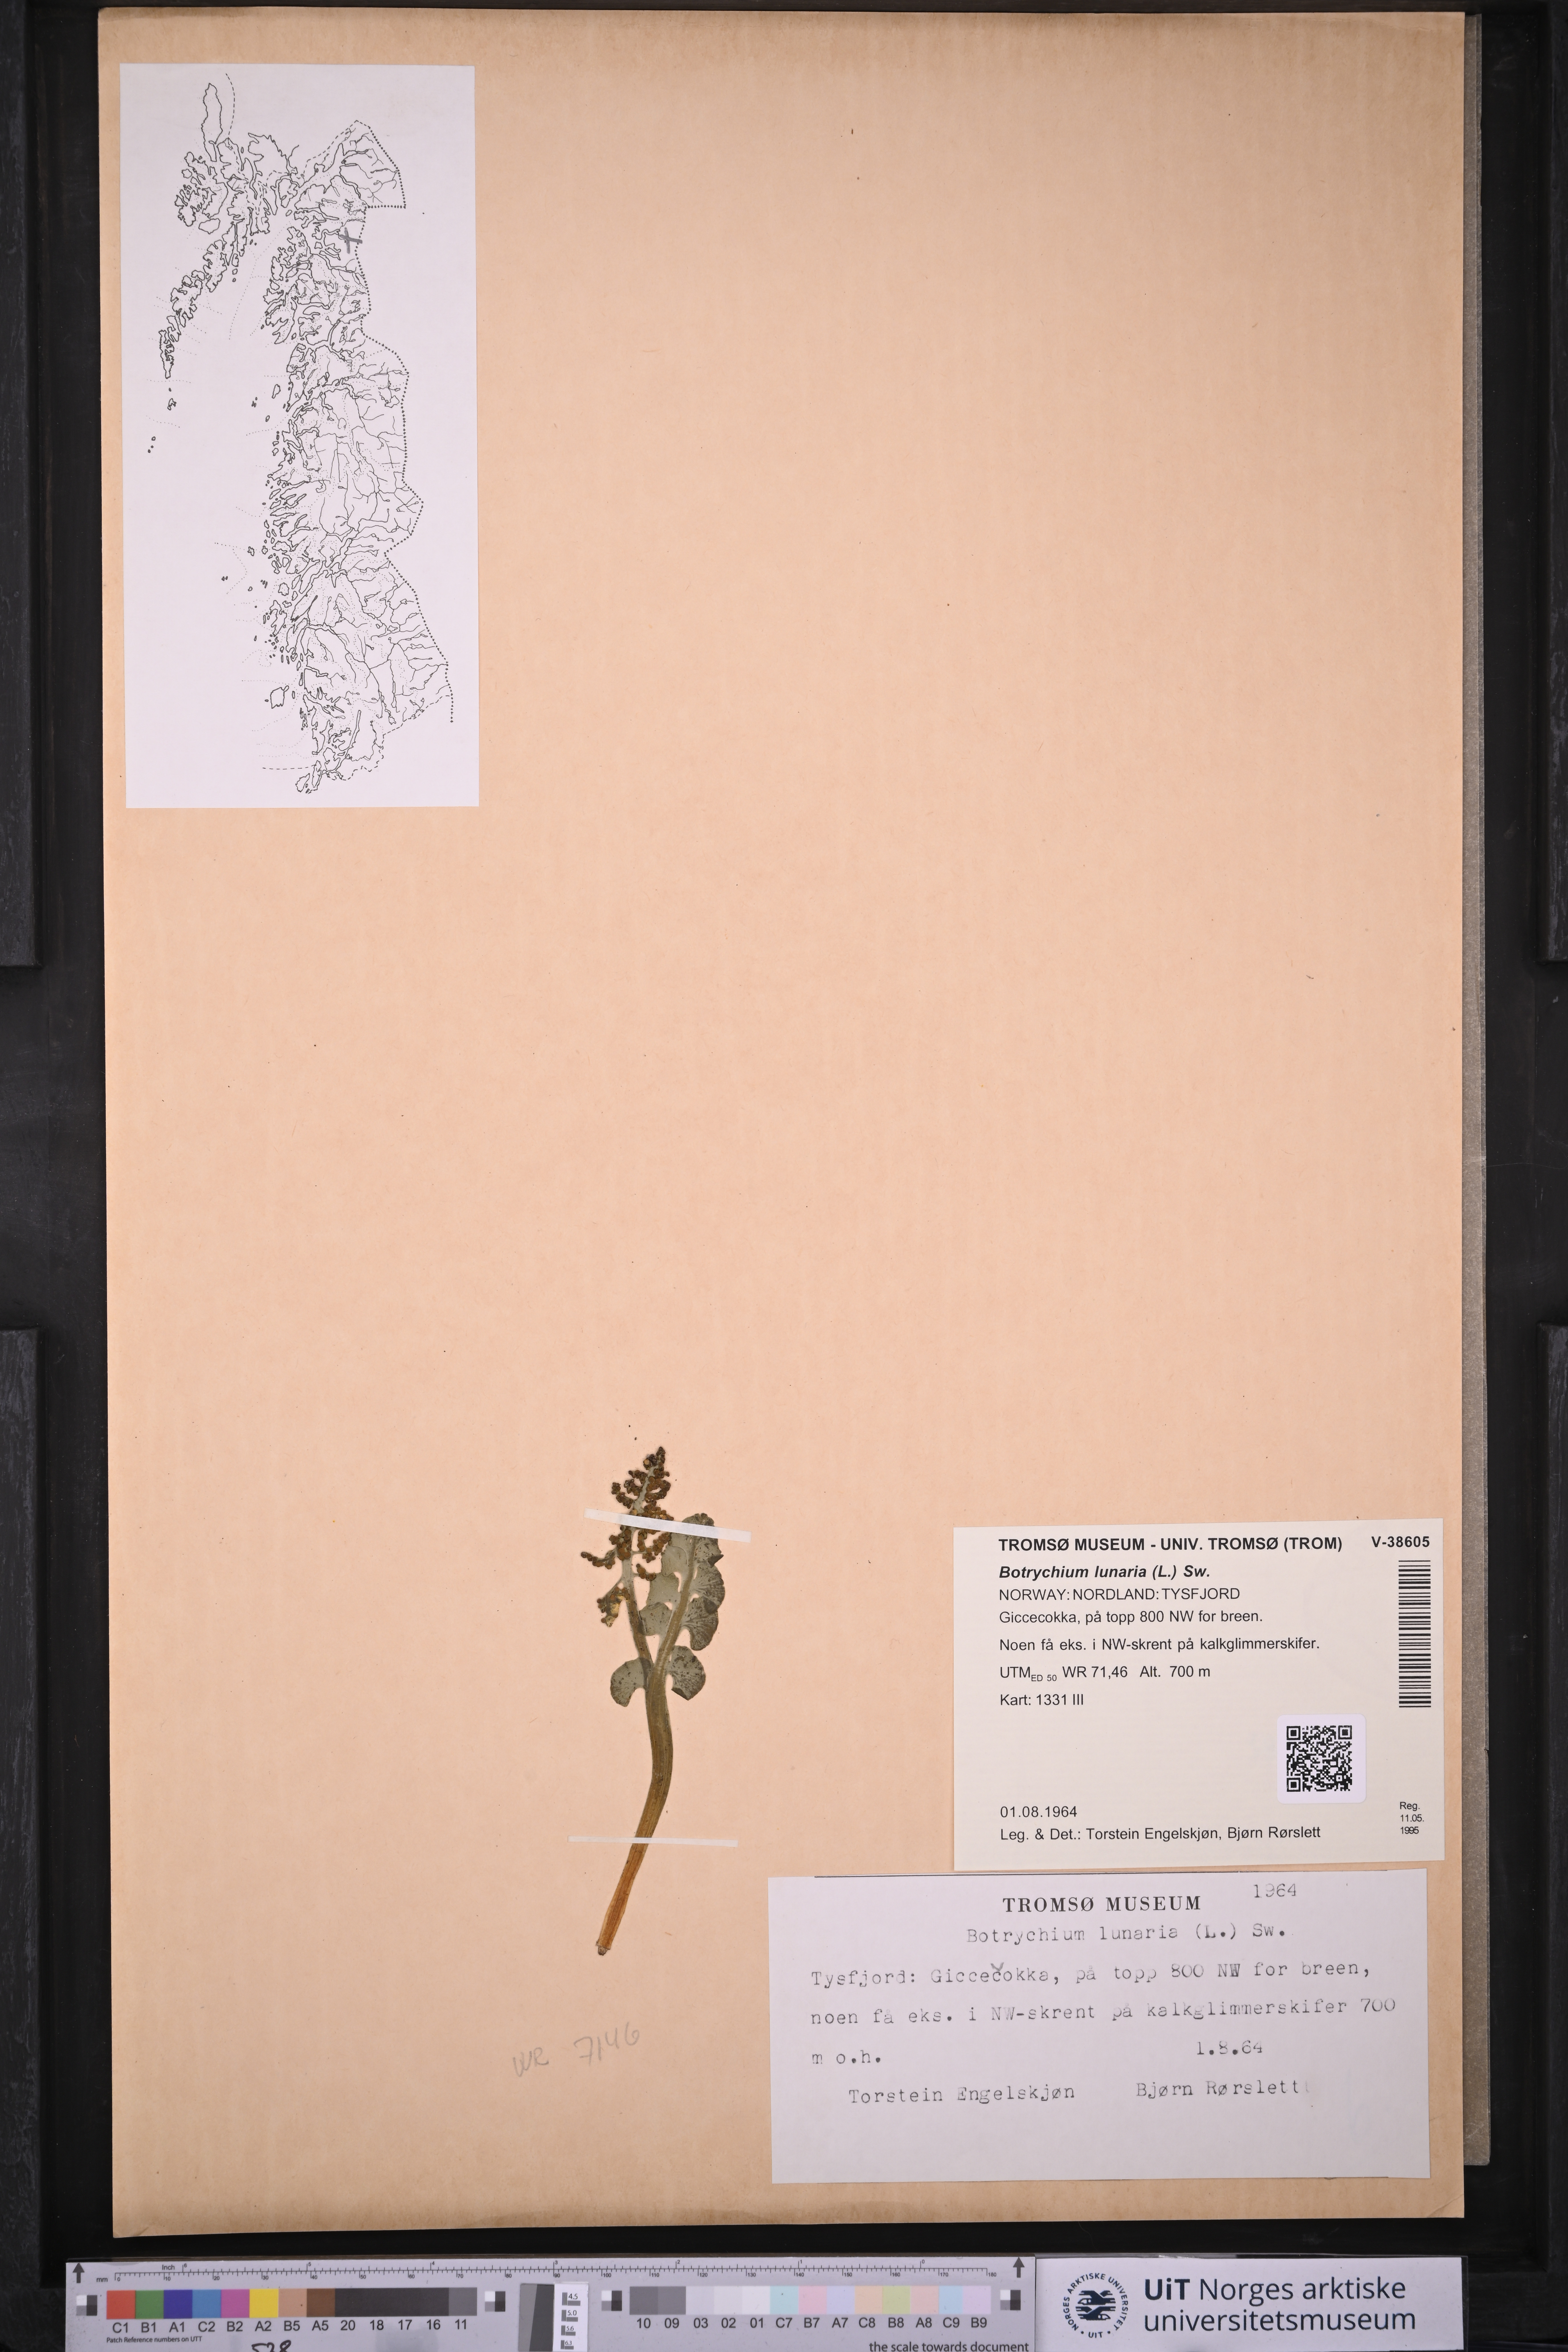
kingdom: Plantae
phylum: Tracheophyta
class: Polypodiopsida
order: Ophioglossales
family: Ophioglossaceae
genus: Botrychium
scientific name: Botrychium lunaria
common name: Moonwort
